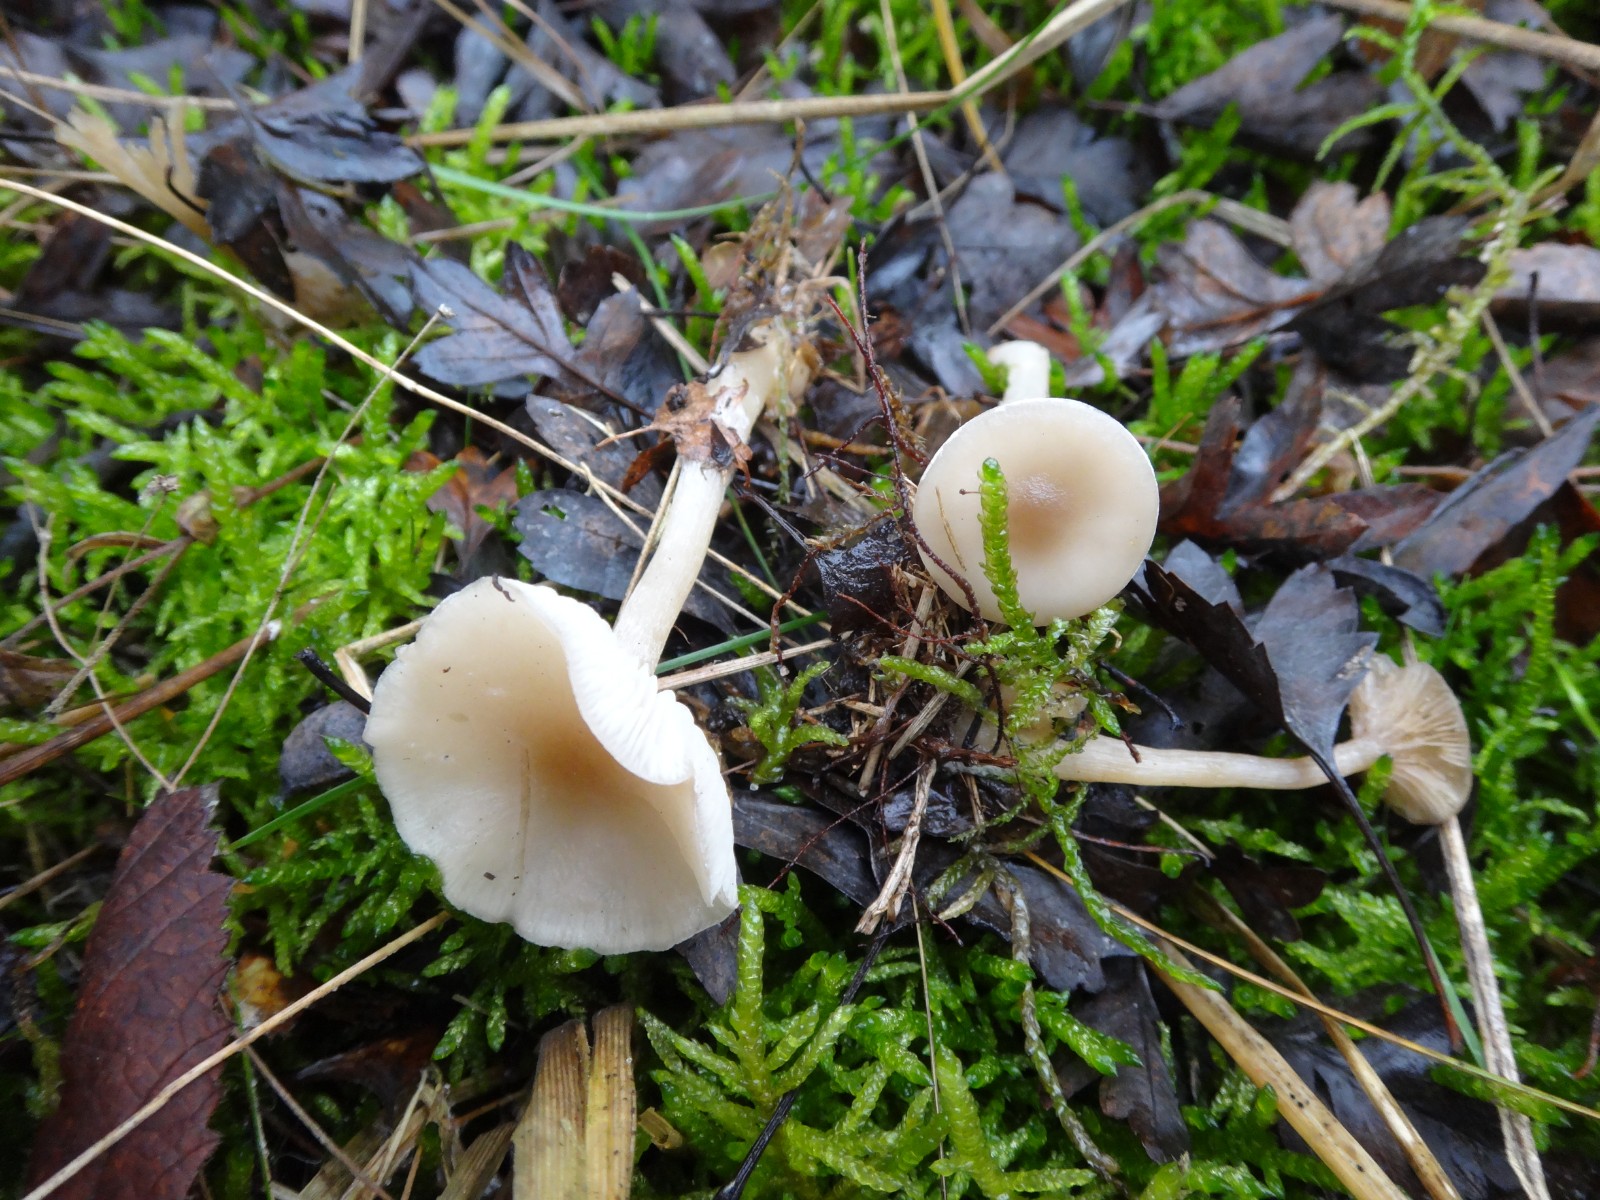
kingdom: Fungi
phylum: Basidiomycota
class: Agaricomycetes
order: Agaricales
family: Tricholomataceae
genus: Clitocybe
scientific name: Clitocybe fragrans
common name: vellugtende tragthat
